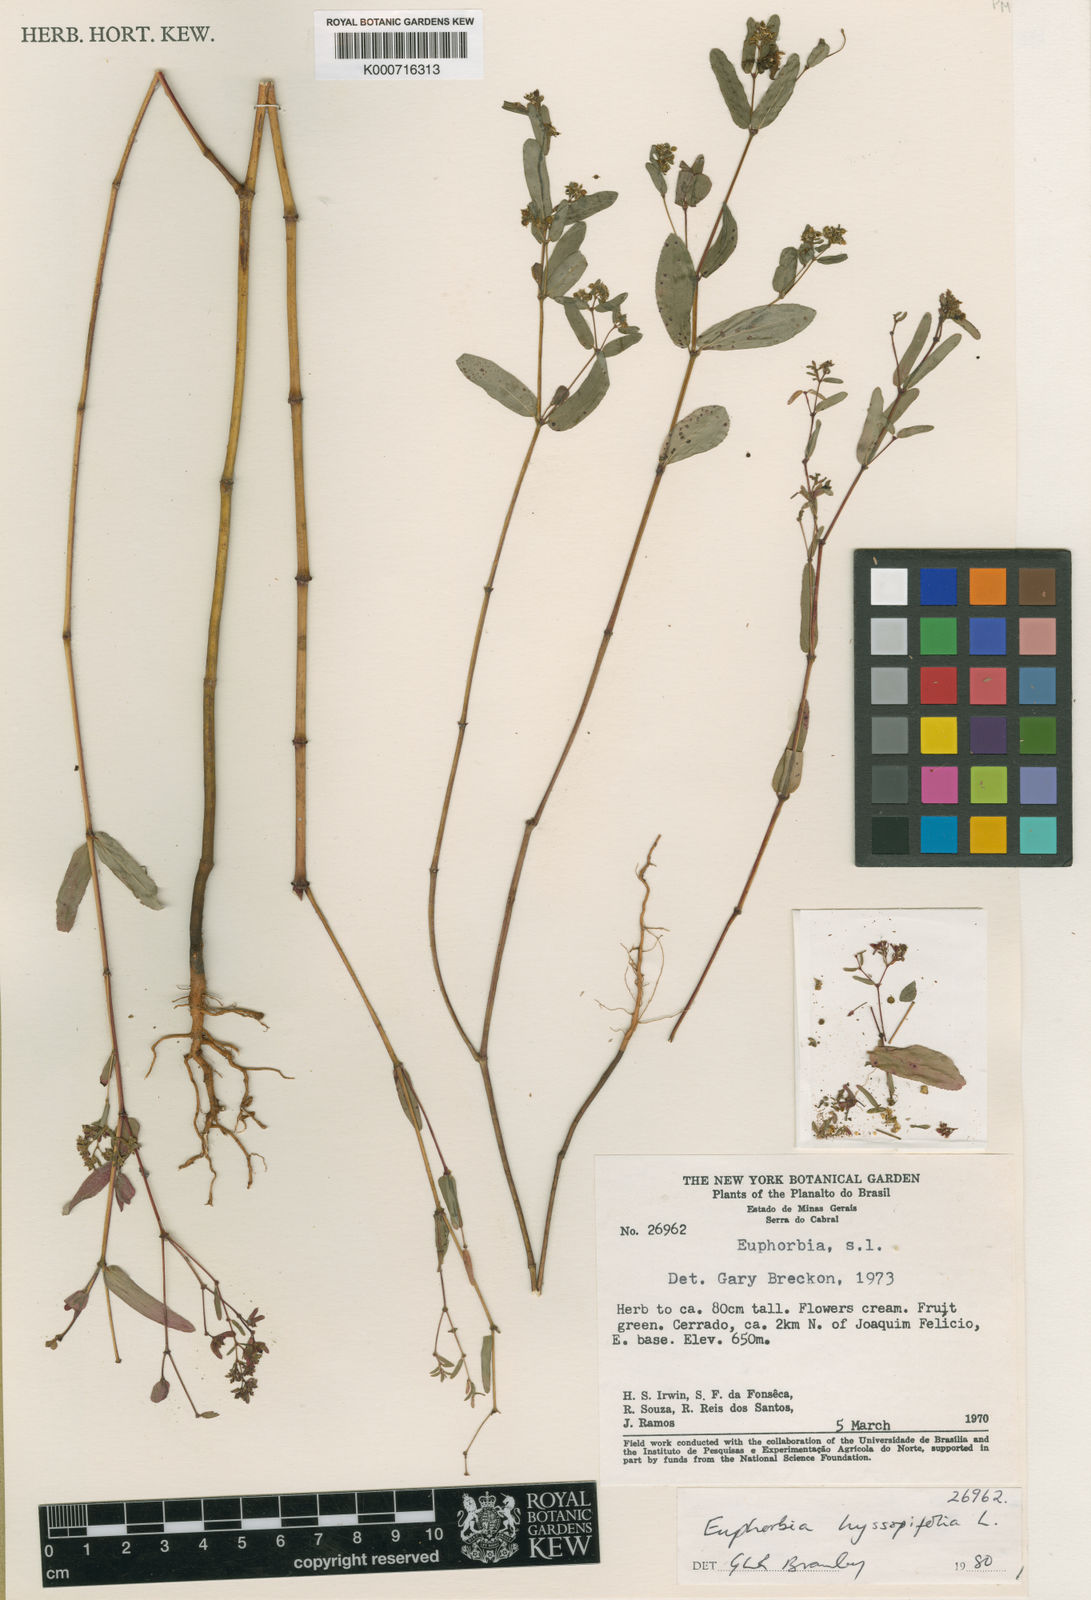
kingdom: Plantae
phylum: Tracheophyta
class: Magnoliopsida
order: Malpighiales
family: Euphorbiaceae
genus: Euphorbia
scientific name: Euphorbia hyssopifolia
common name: Hyssopleaf sandmat
